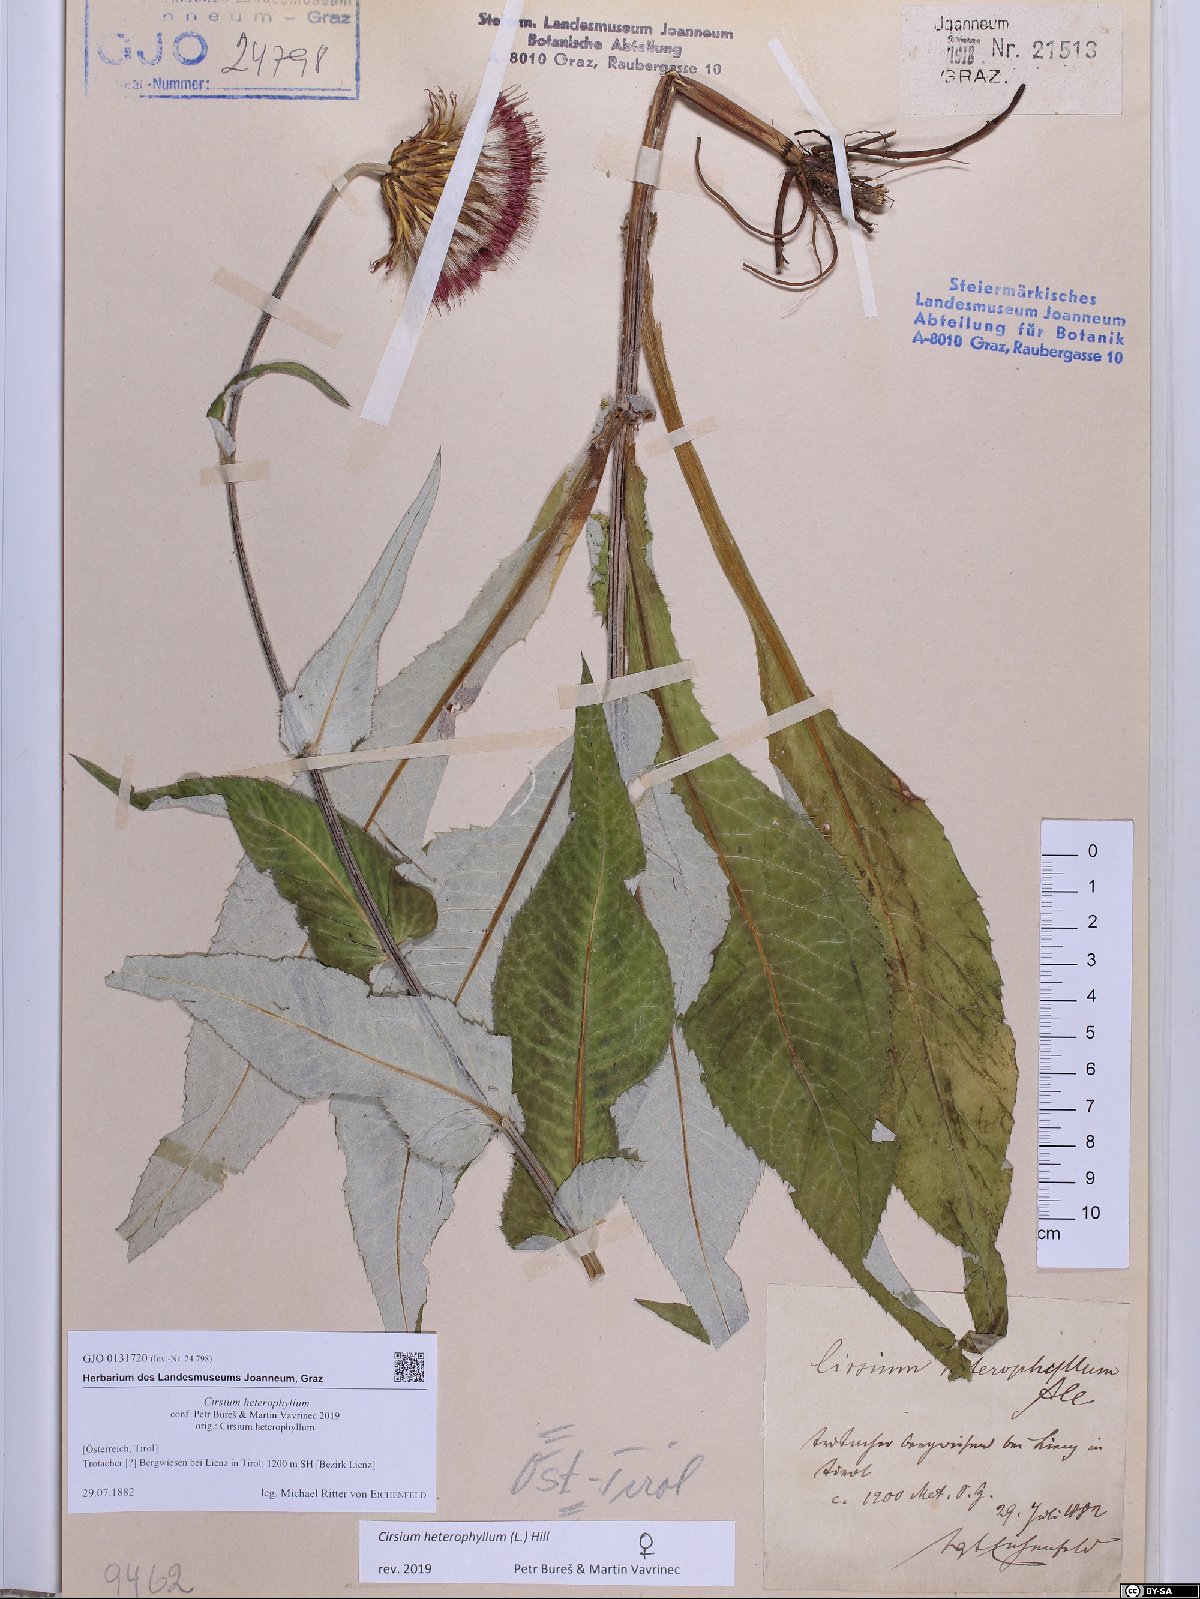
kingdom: Plantae
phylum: Tracheophyta
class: Magnoliopsida
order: Asterales
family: Asteraceae
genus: Cirsium
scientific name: Cirsium heterophyllum
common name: Melancholy thistle
